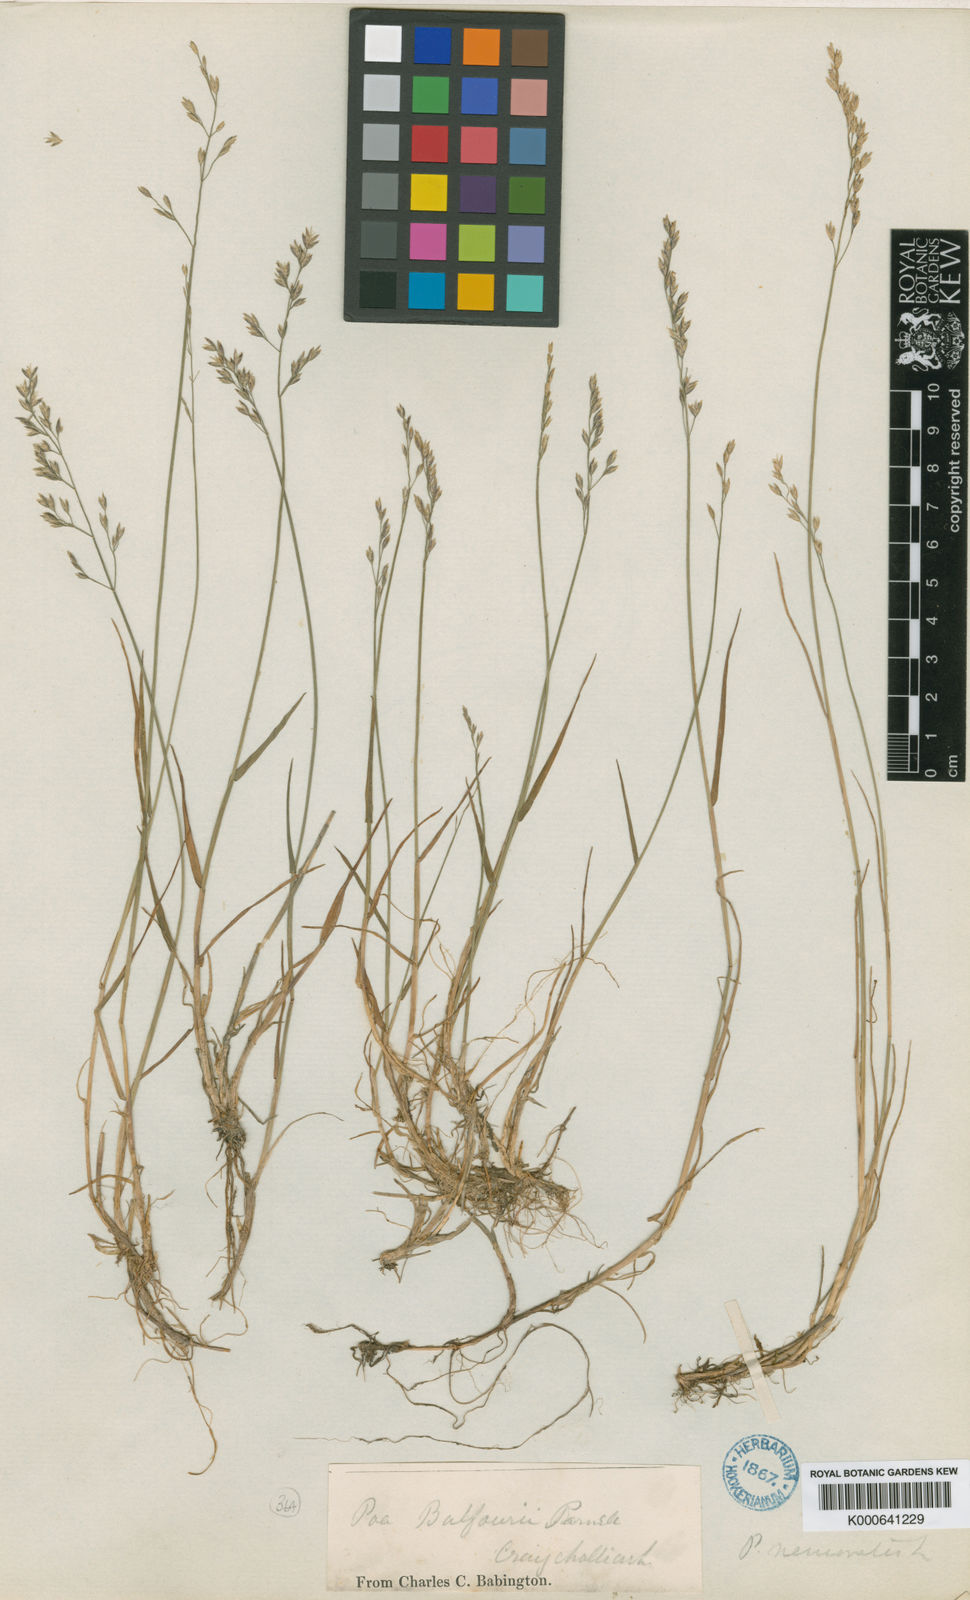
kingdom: Plantae
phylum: Tracheophyta
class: Liliopsida
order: Poales
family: Poaceae
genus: Poa
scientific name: Poa glauca
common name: Glaucous bluegrass
